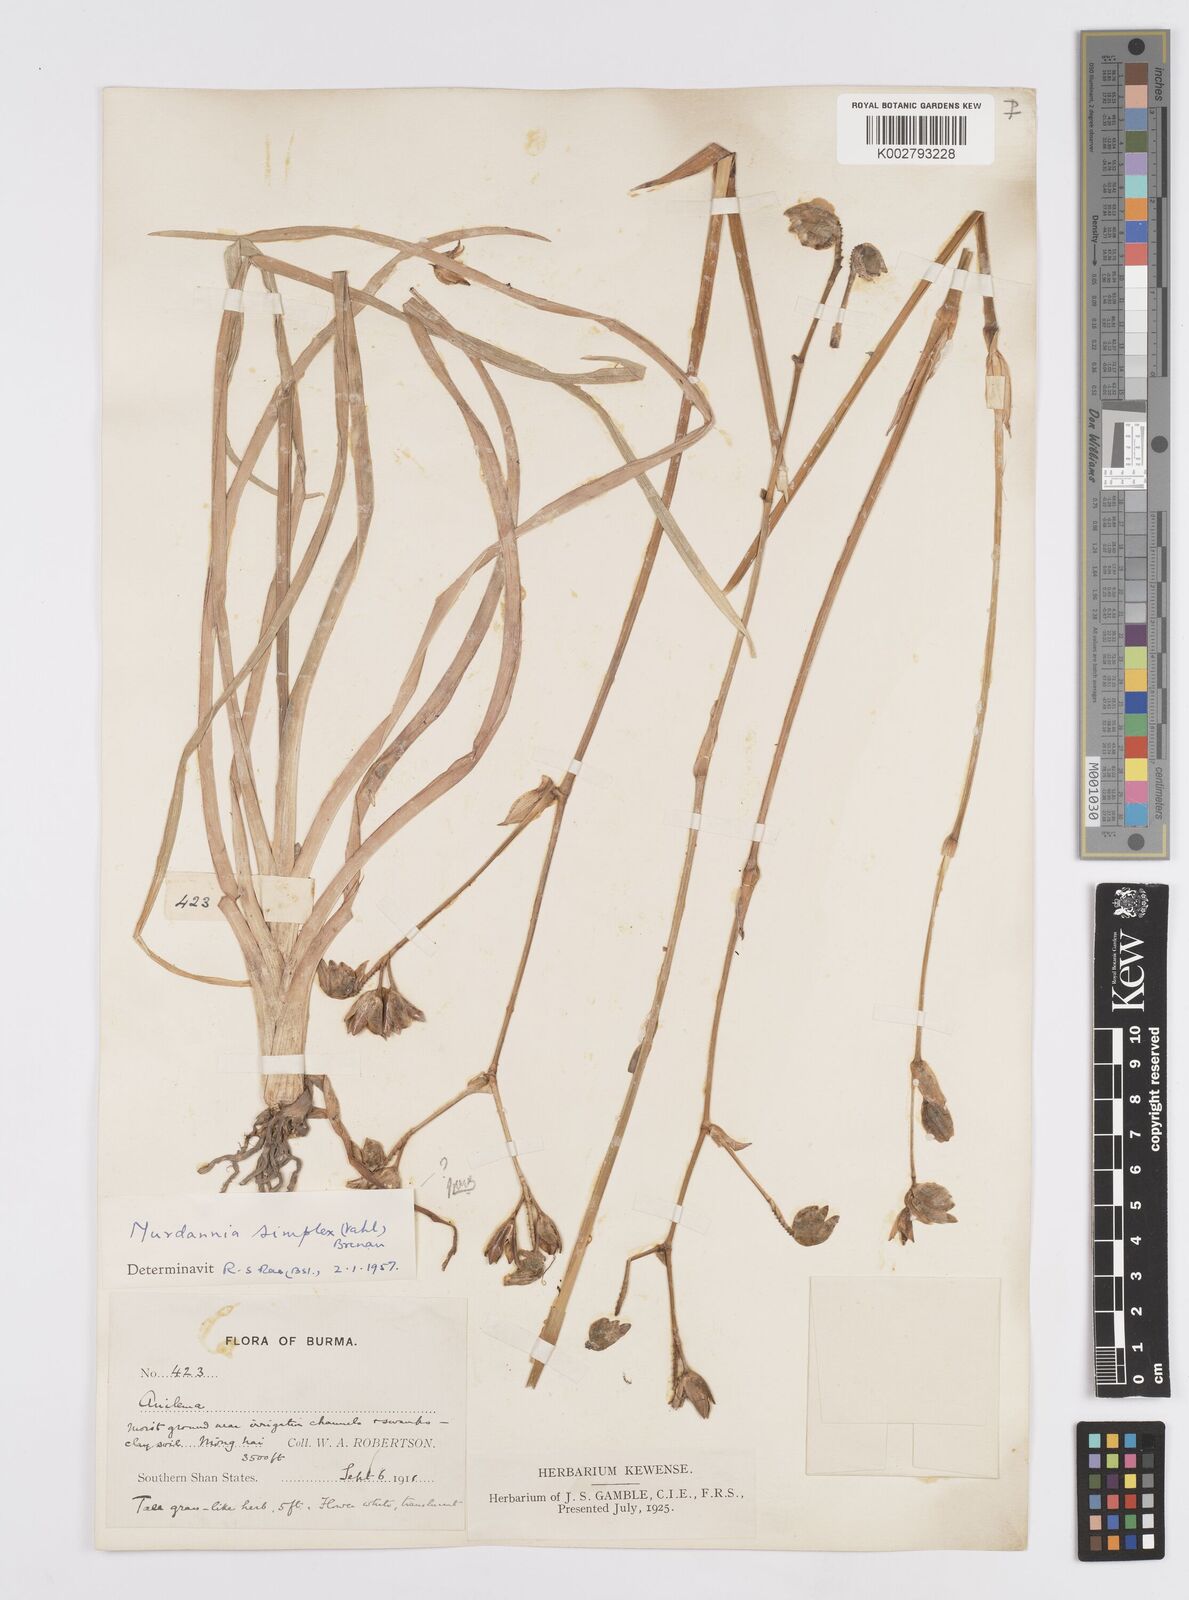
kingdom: Plantae
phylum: Tracheophyta
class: Liliopsida
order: Commelinales
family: Commelinaceae
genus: Murdannia
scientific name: Murdannia gigantea
